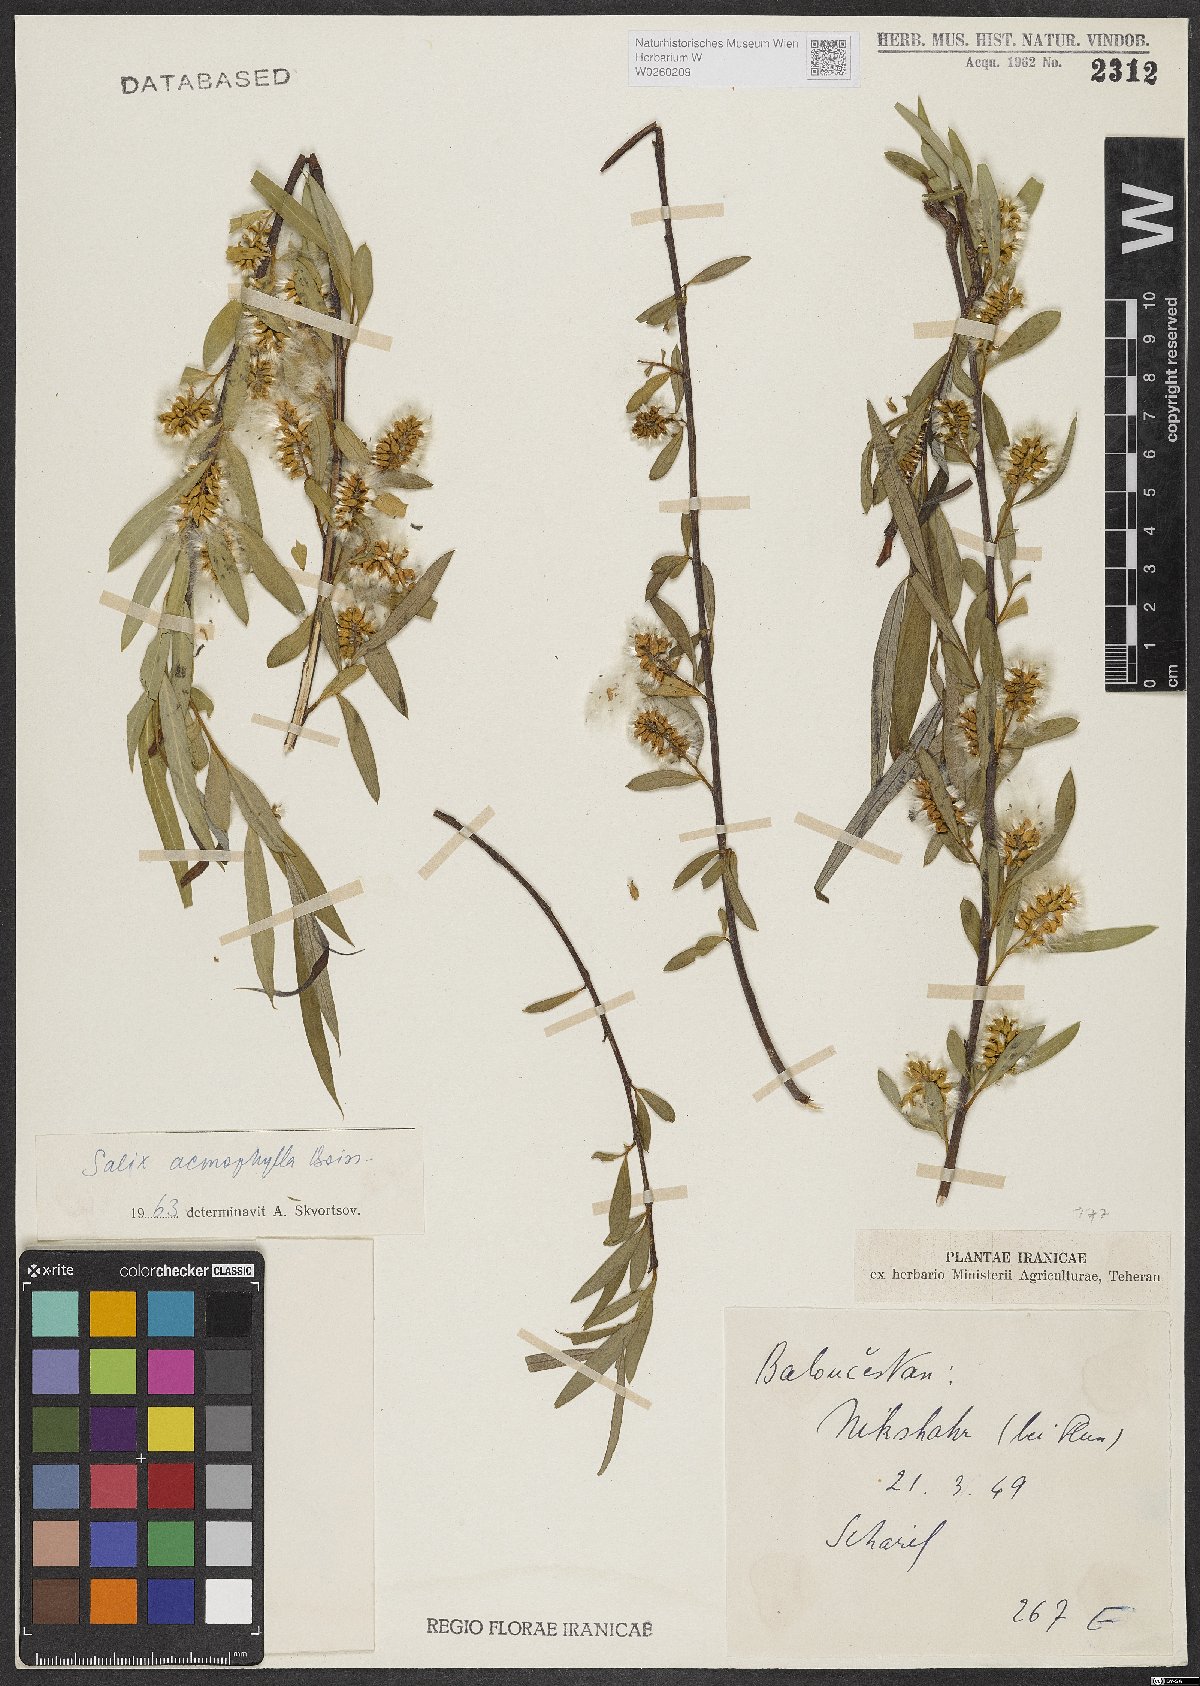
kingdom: Plantae
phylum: Tracheophyta
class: Magnoliopsida
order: Malpighiales
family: Salicaceae
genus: Salix
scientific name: Salix acmophylla
